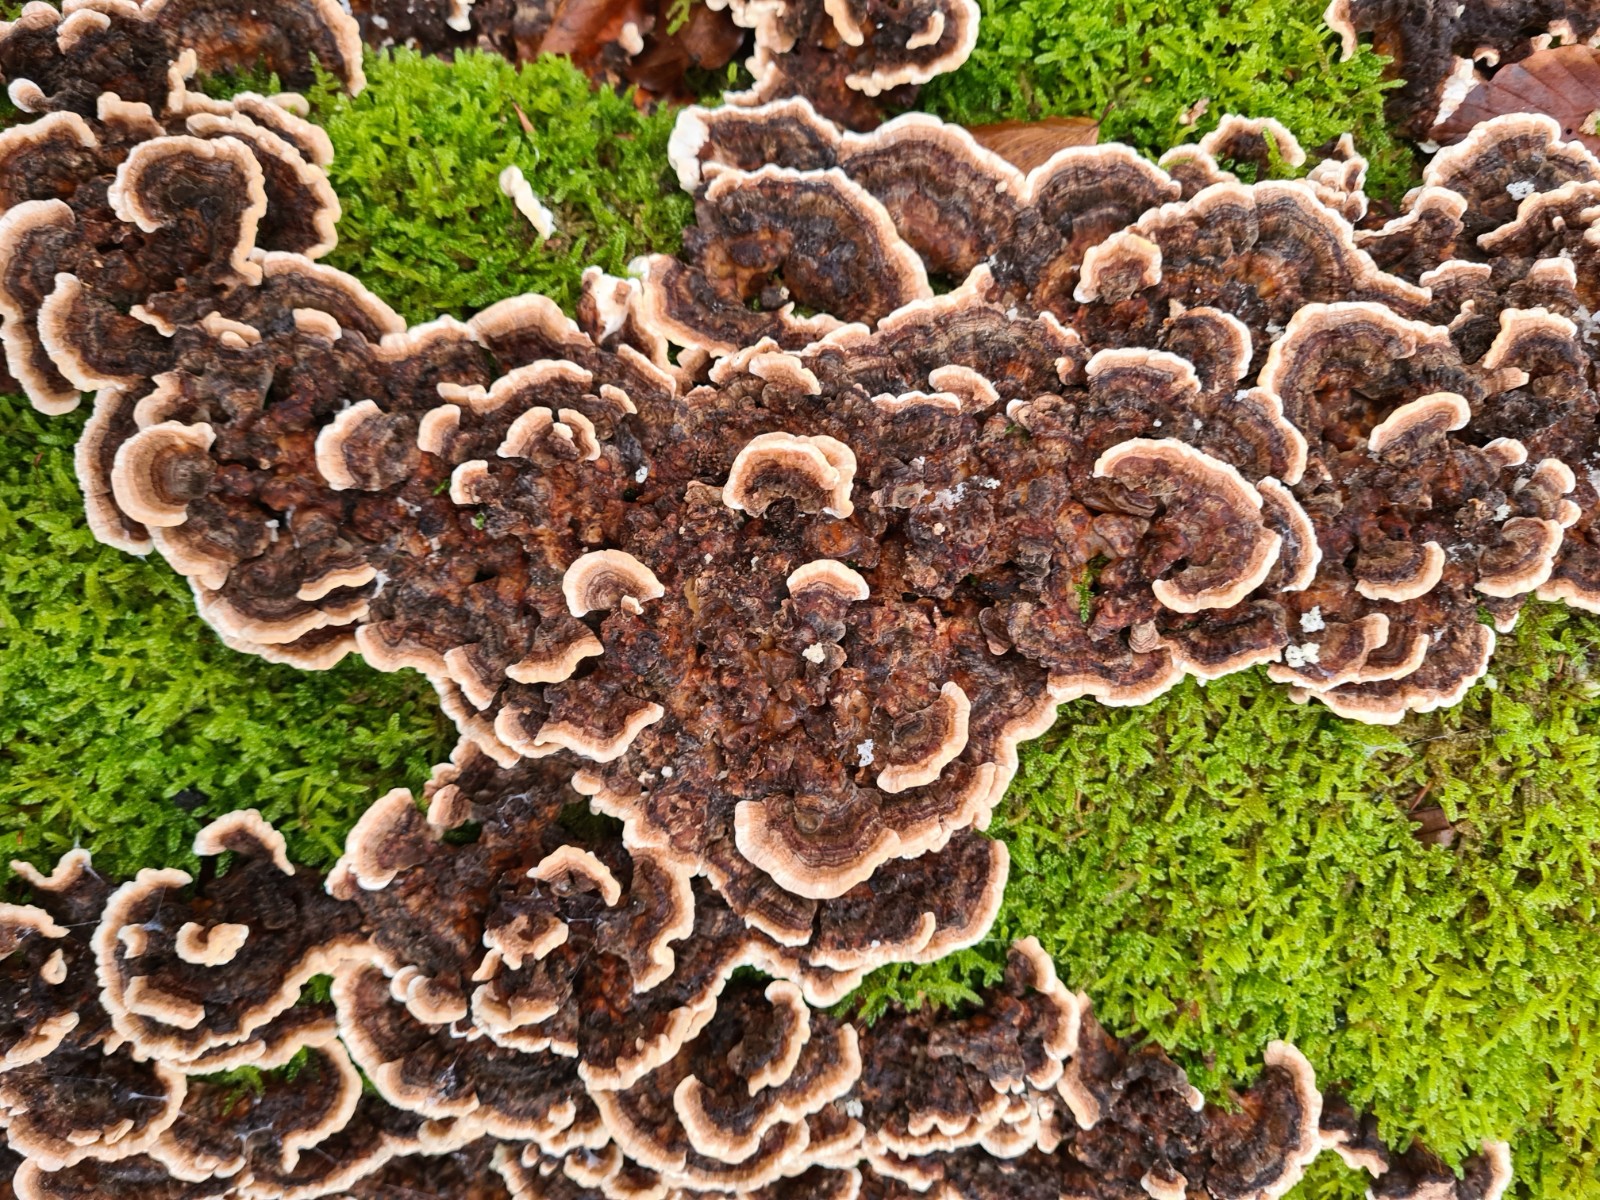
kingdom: Fungi
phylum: Basidiomycota
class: Agaricomycetes
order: Polyporales
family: Polyporaceae
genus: Trametes
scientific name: Trametes versicolor
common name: broget læderporesvamp
